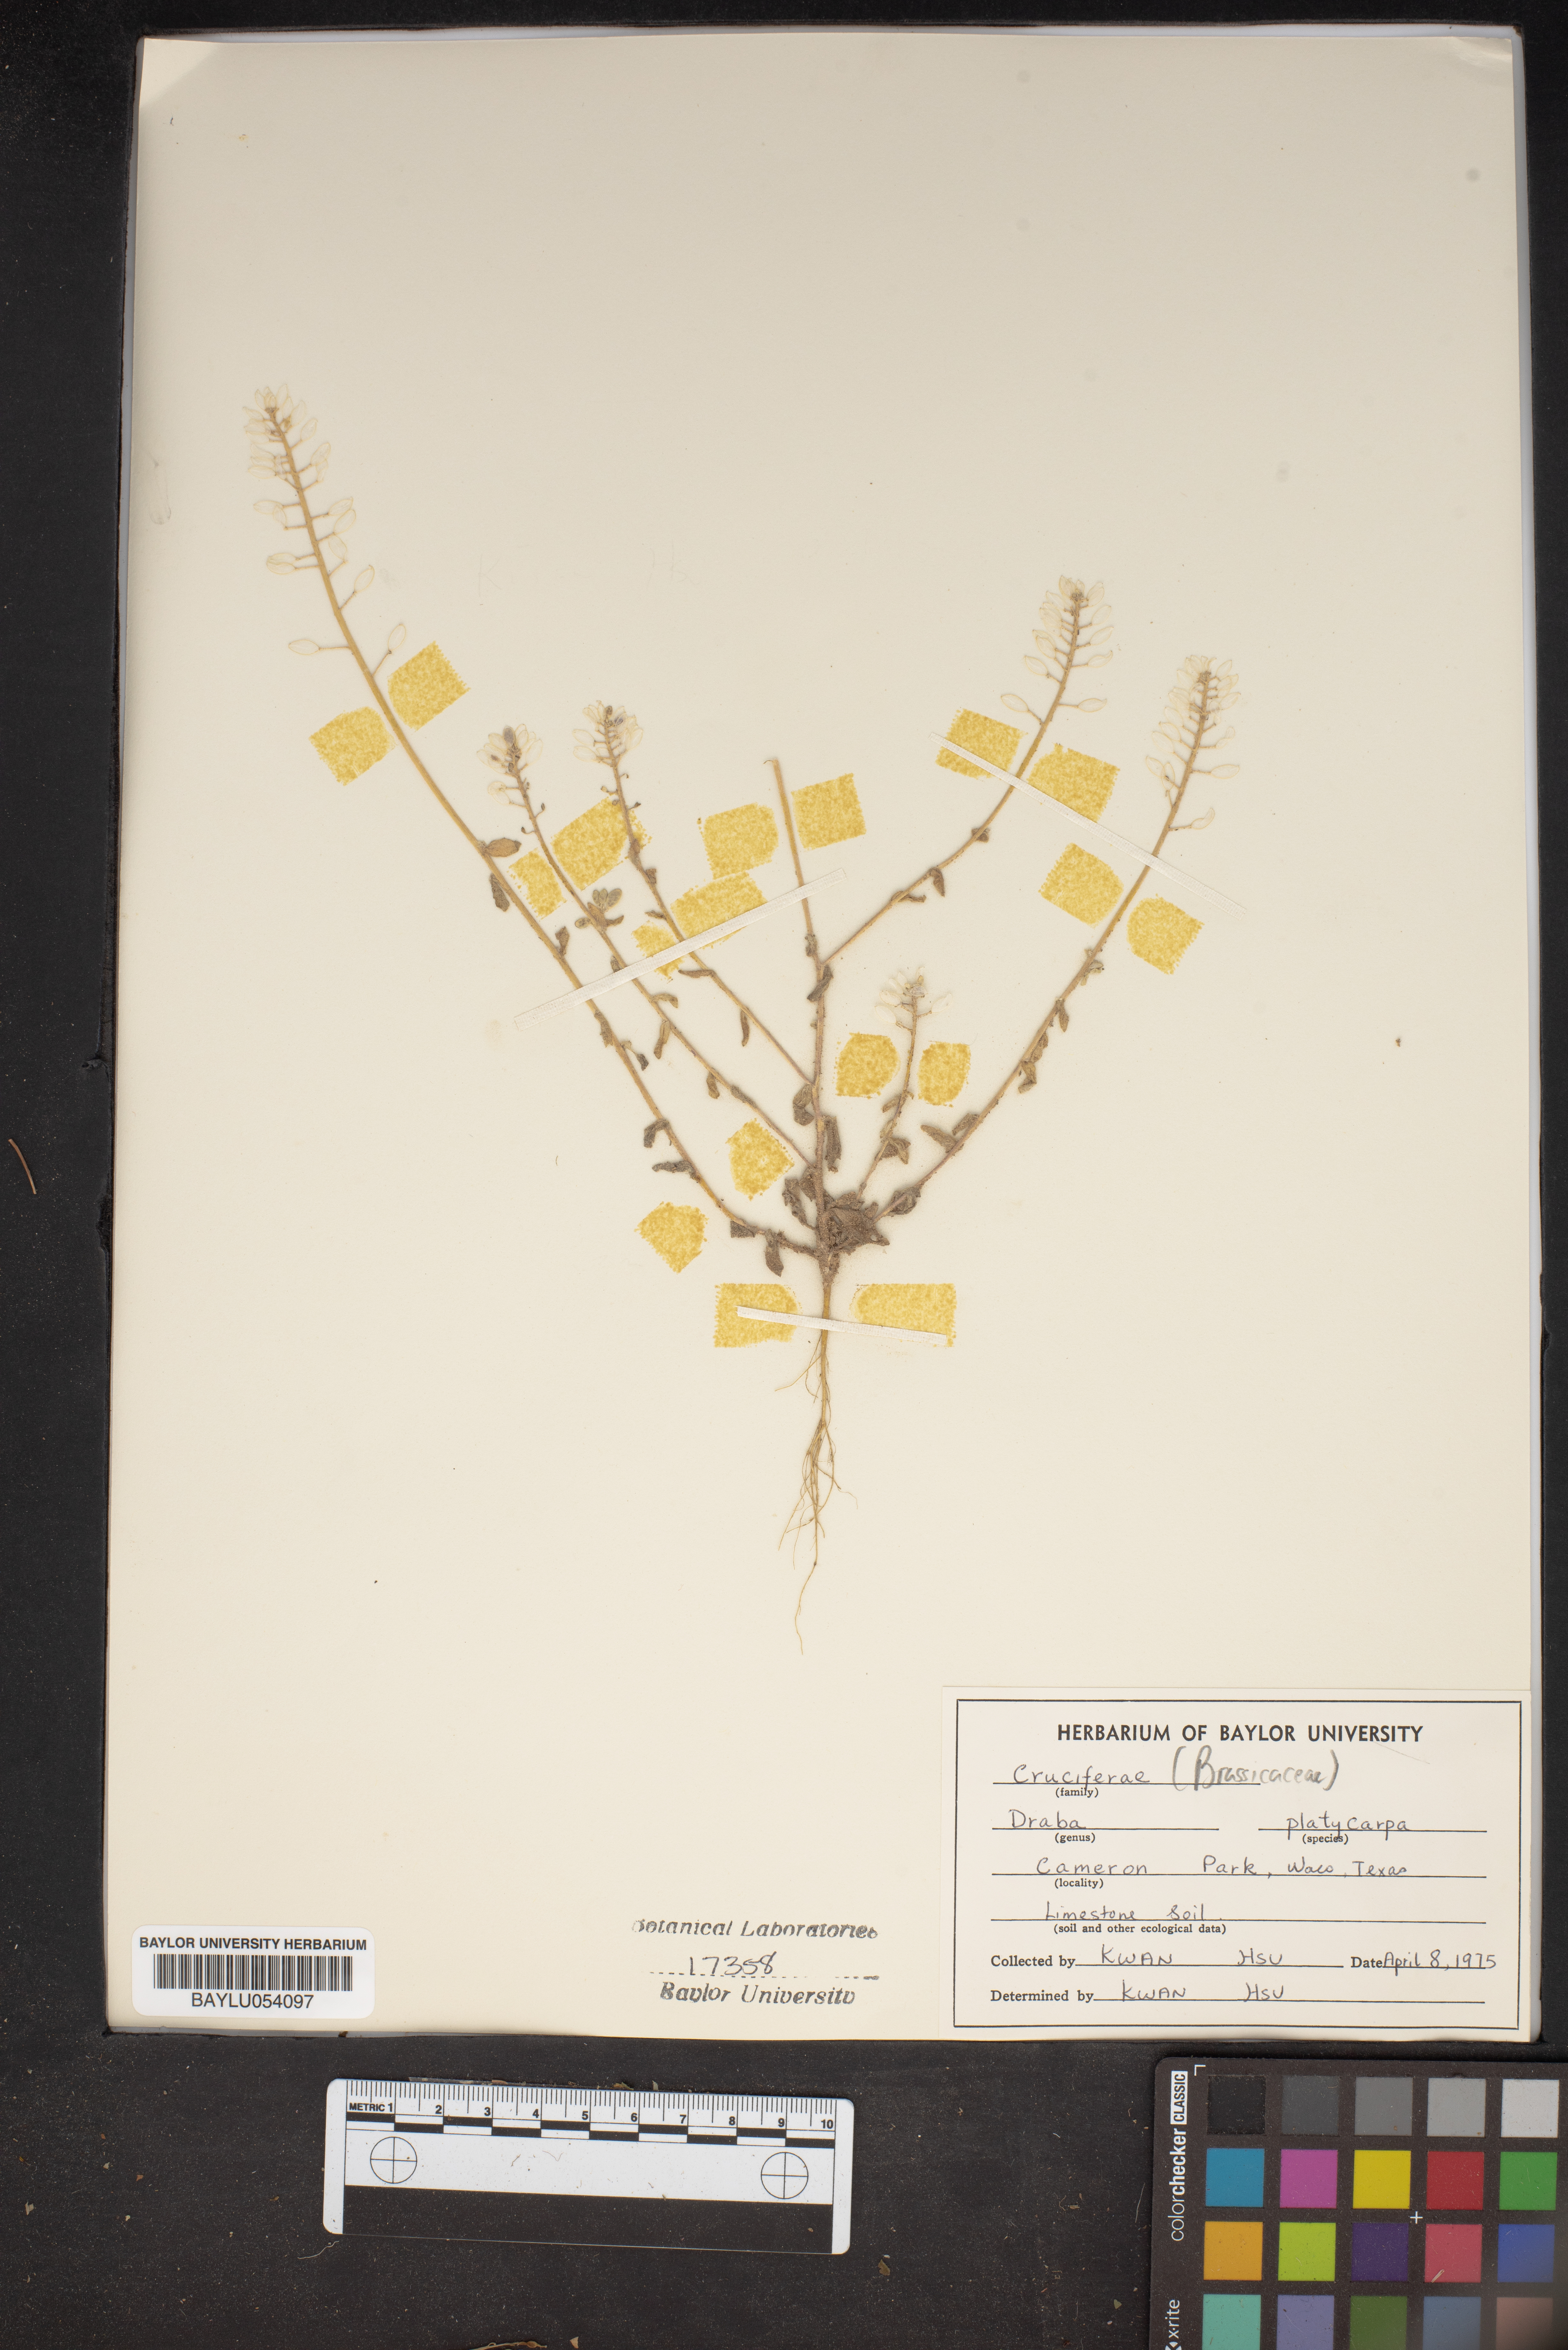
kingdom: Plantae
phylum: Tracheophyta
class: Magnoliopsida
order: Brassicales
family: Brassicaceae
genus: Tomostima
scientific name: Tomostima platycarpa
